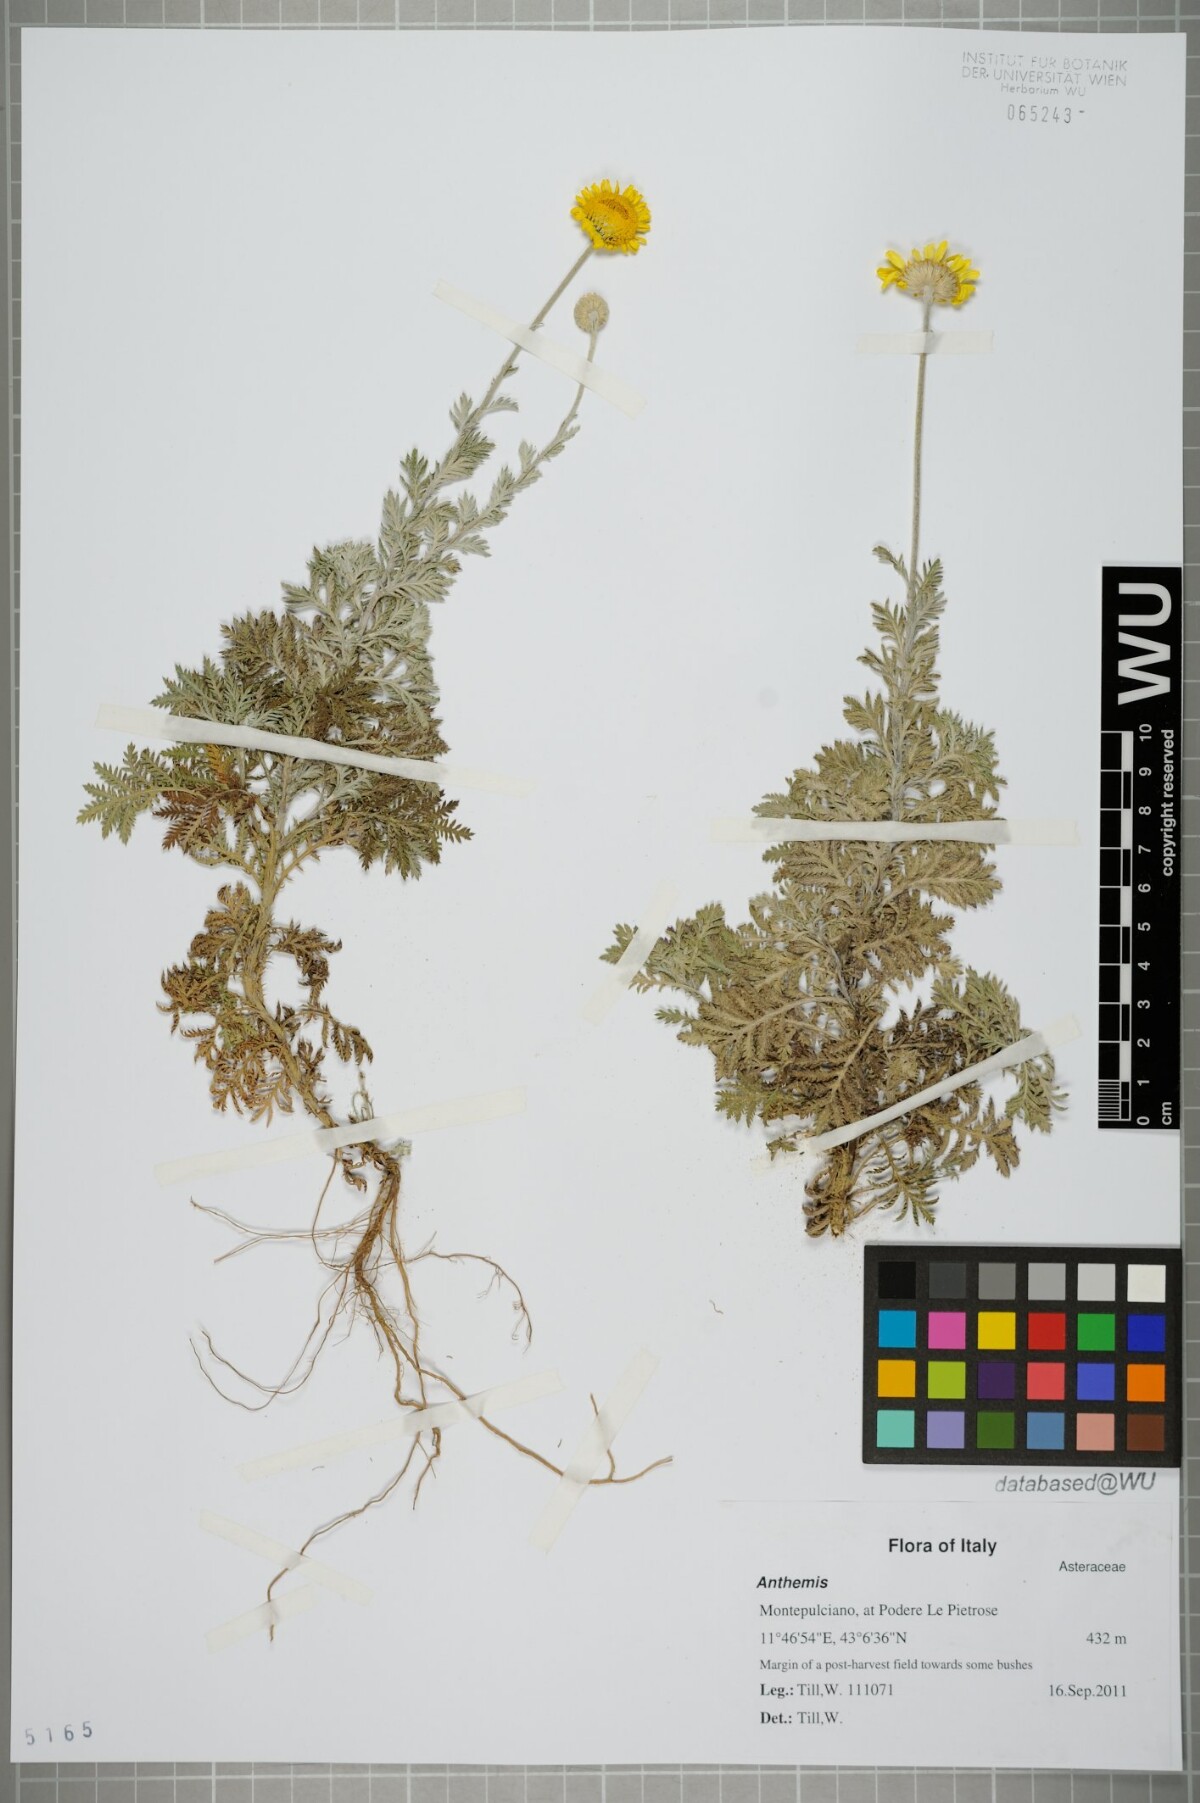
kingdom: Plantae
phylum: Tracheophyta
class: Magnoliopsida
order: Asterales
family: Asteraceae
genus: Anthemis
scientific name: Anthemis
